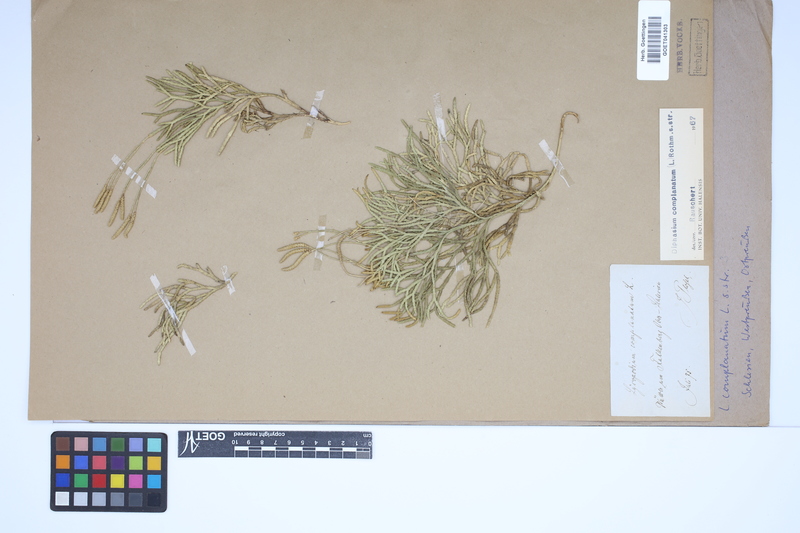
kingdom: Plantae
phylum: Tracheophyta
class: Lycopodiopsida
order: Lycopodiales
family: Lycopodiaceae
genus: Diphasiastrum
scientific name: Diphasiastrum complanatum
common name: Northern running-pine
